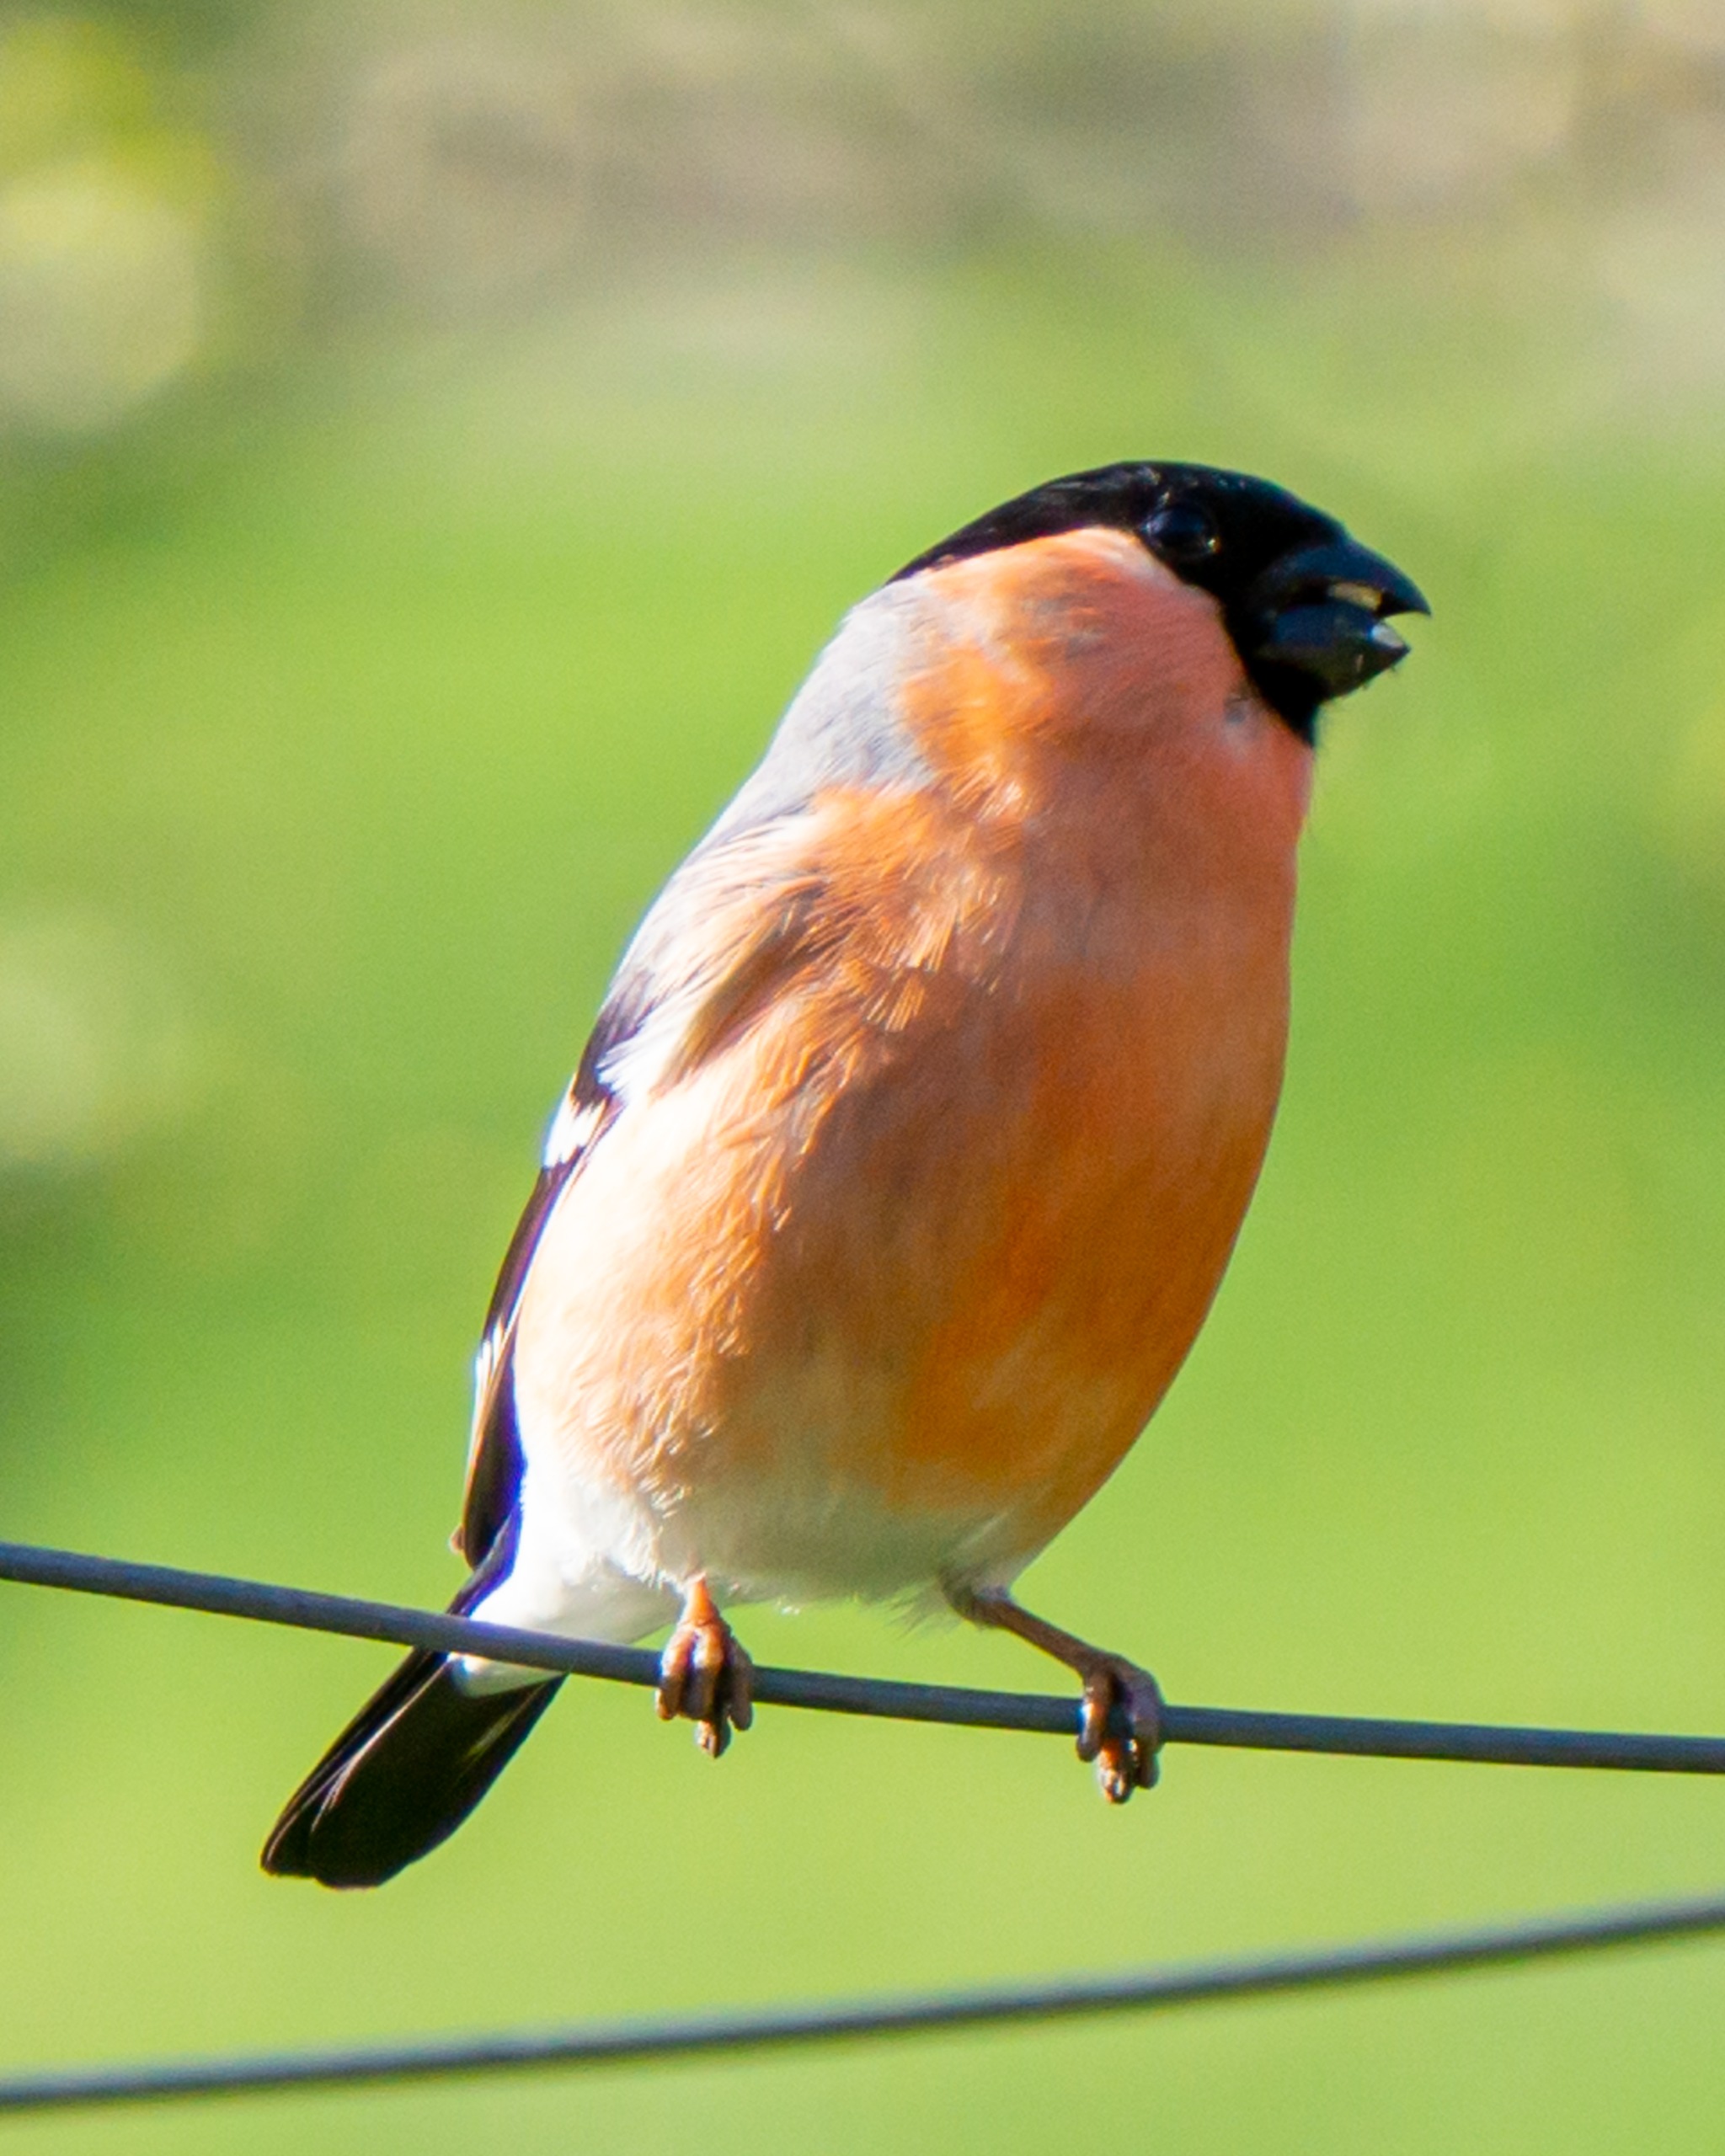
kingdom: Animalia
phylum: Chordata
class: Aves
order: Passeriformes
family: Fringillidae
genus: Pyrrhula
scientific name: Pyrrhula pyrrhula
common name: Dompap
